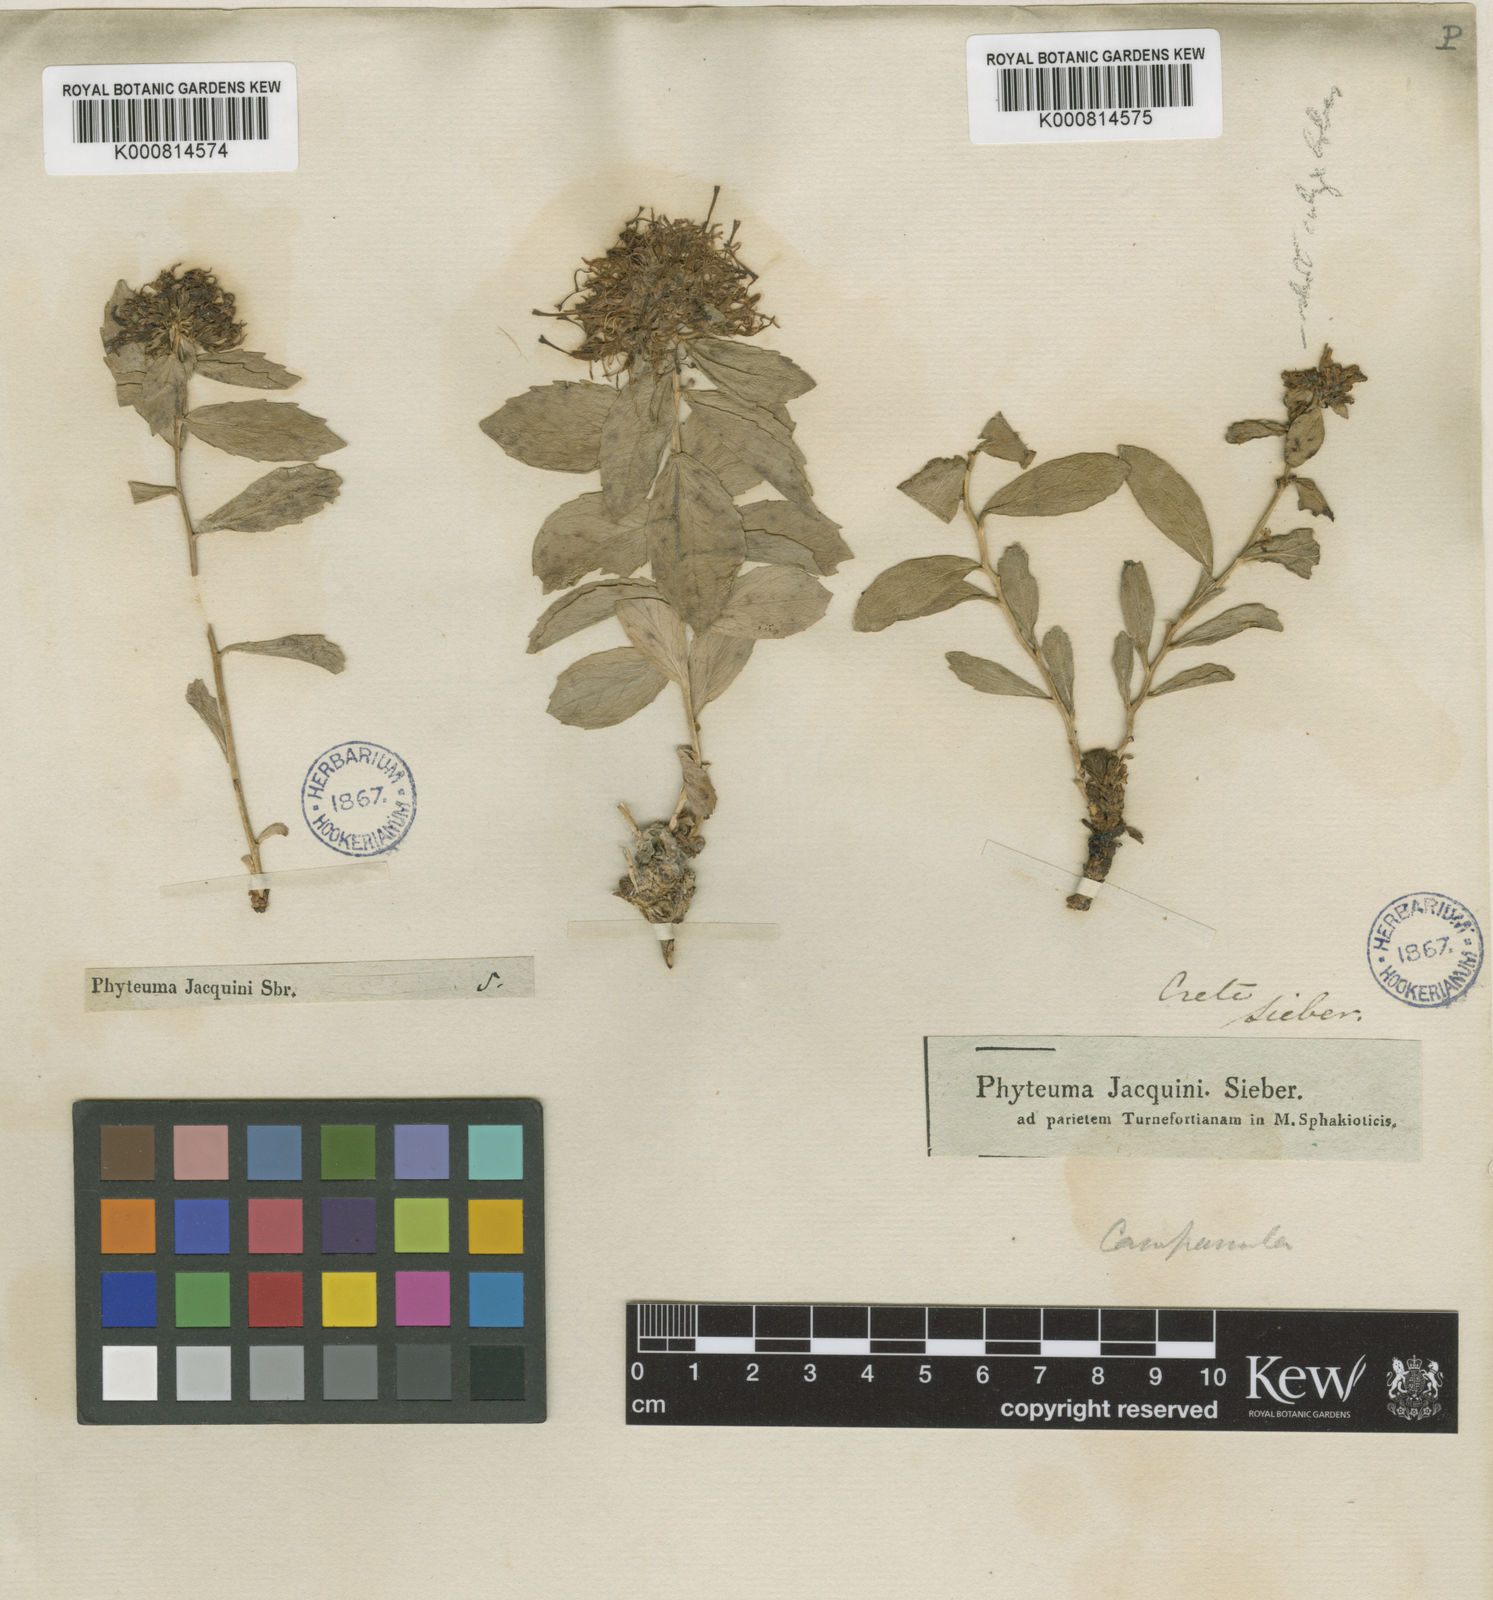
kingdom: Plantae
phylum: Tracheophyta
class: Magnoliopsida
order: Asterales
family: Campanulaceae
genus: Diosphaera
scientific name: Diosphaera
